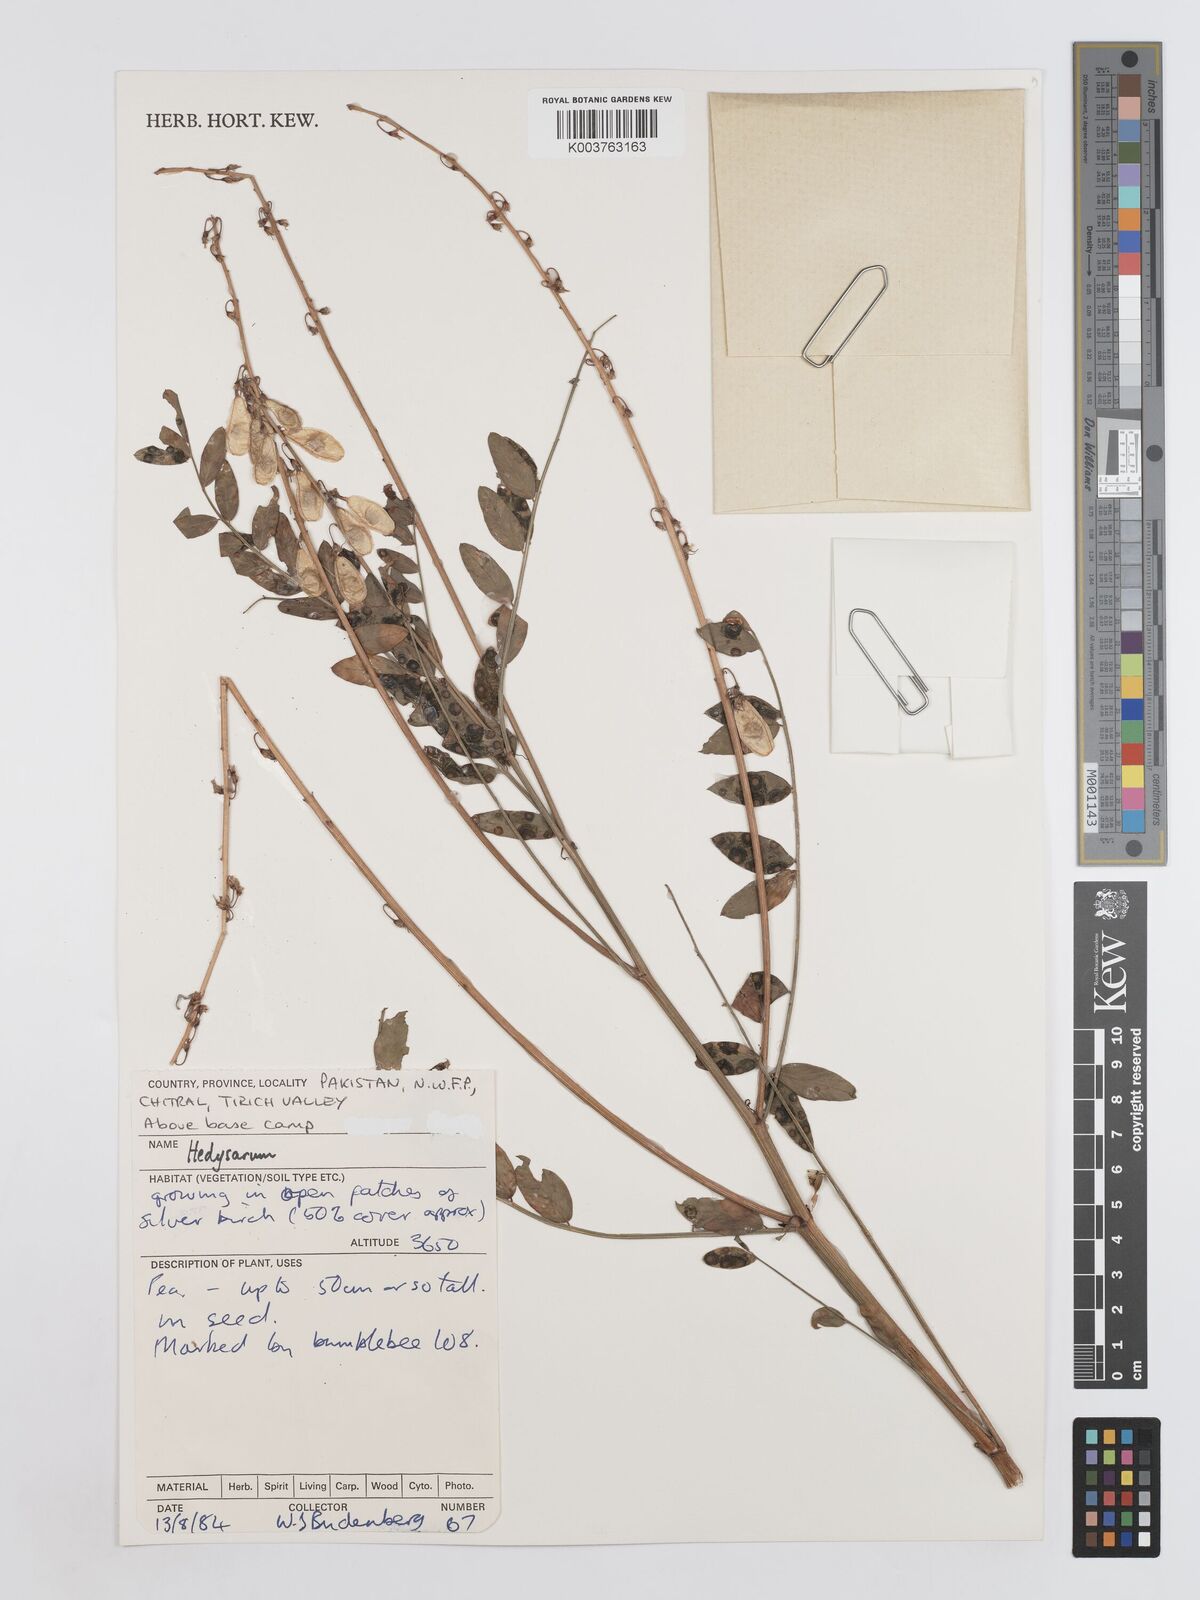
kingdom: Plantae
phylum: Tracheophyta
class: Magnoliopsida
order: Fabales
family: Fabaceae
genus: Hedysarum
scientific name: Hedysarum
